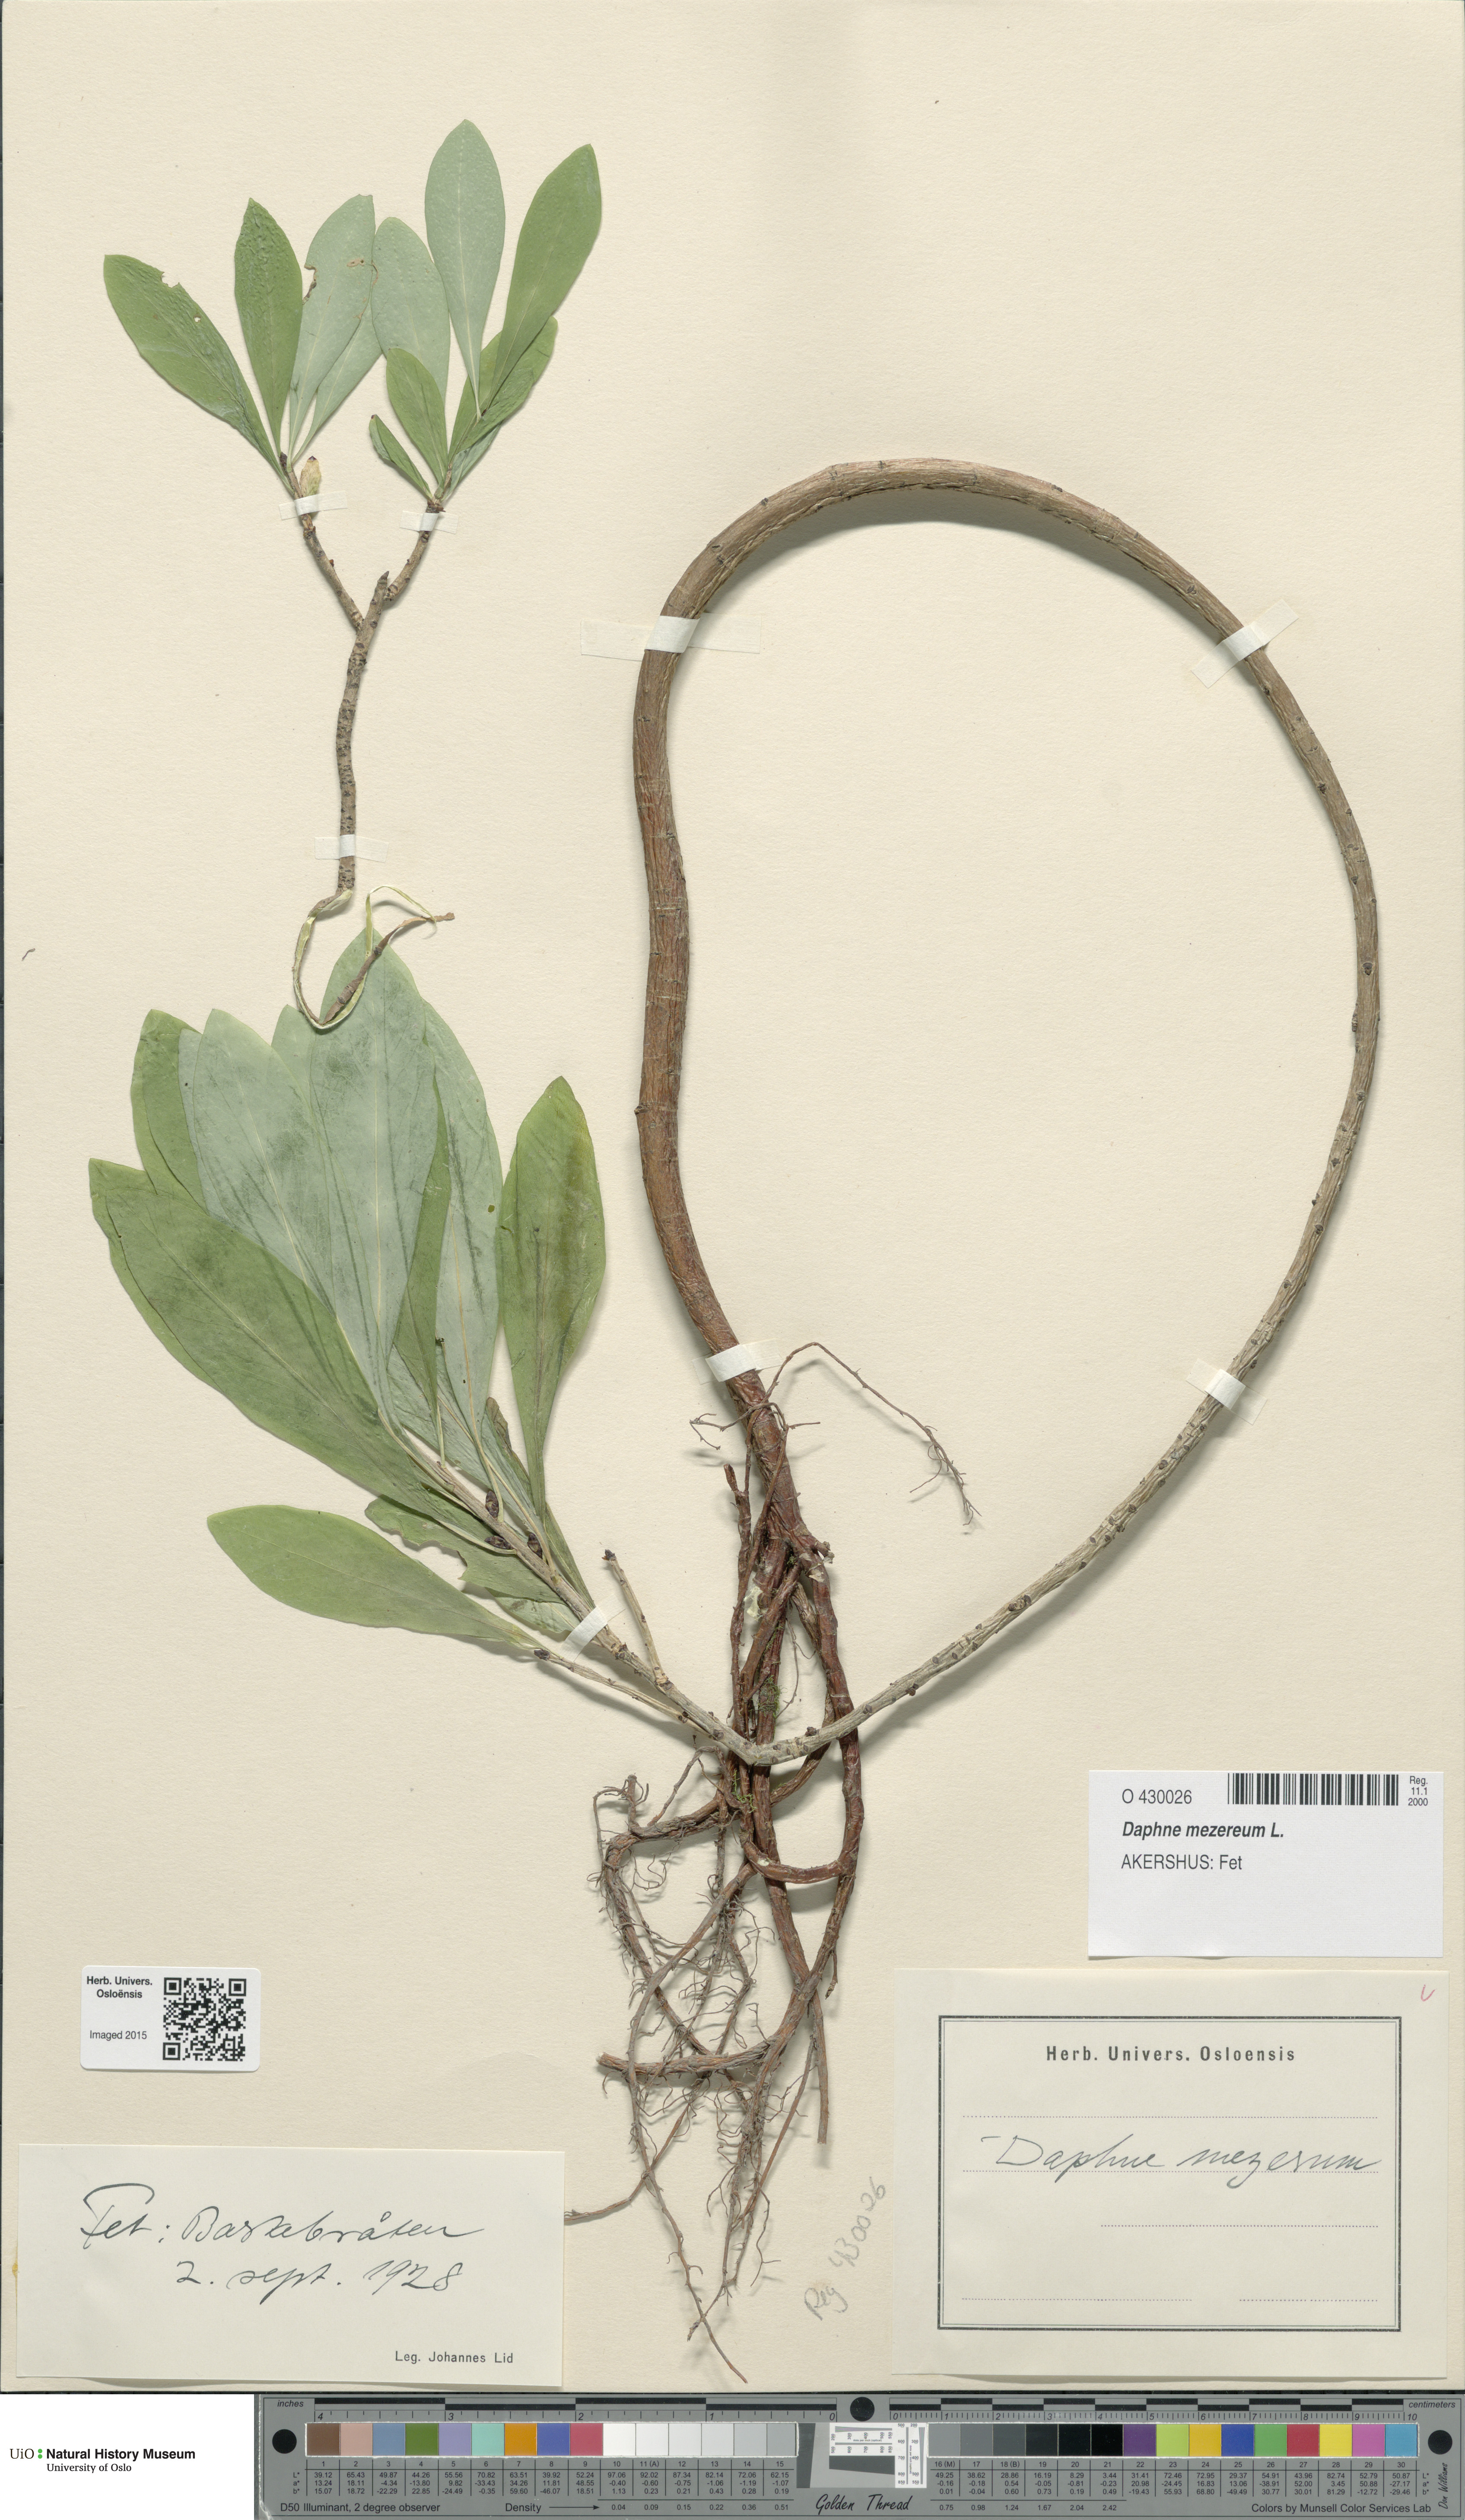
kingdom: Plantae
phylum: Tracheophyta
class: Magnoliopsida
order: Malvales
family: Thymelaeaceae
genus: Daphne
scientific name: Daphne mezereum
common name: Mezereon
